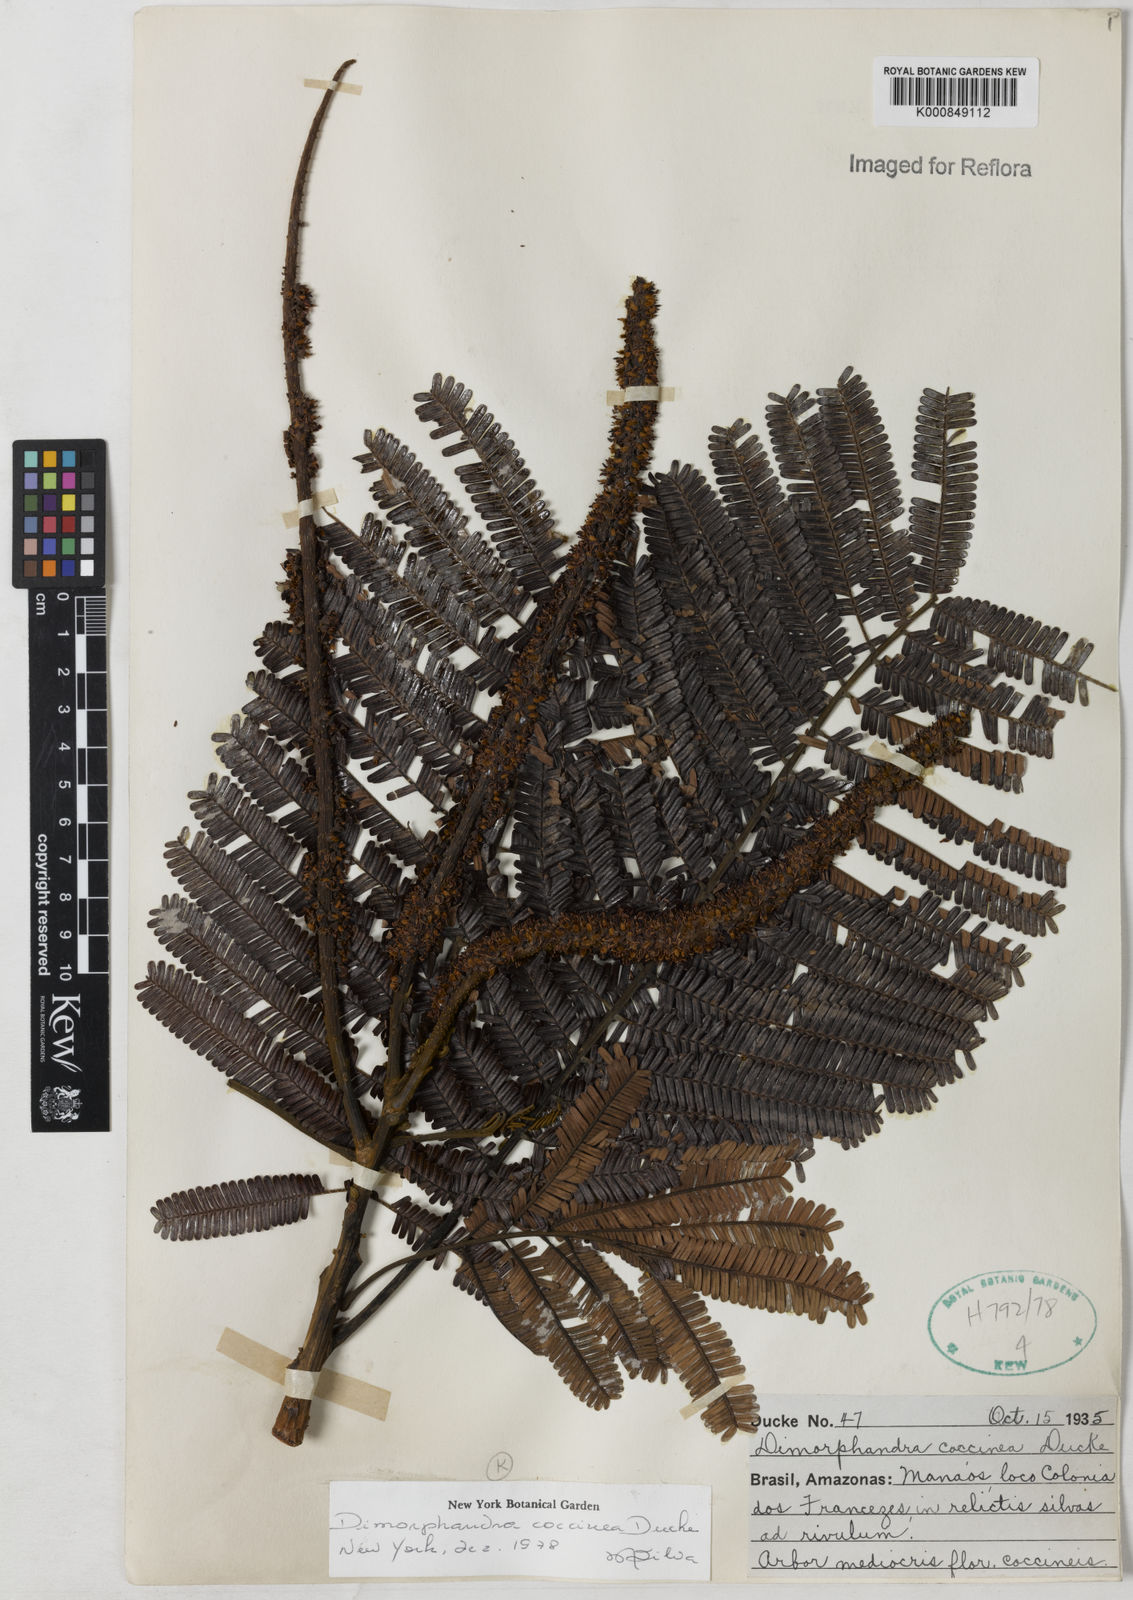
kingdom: Plantae
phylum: Tracheophyta
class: Magnoliopsida
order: Fabales
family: Fabaceae
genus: Dimorphandra
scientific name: Dimorphandra coccinea
